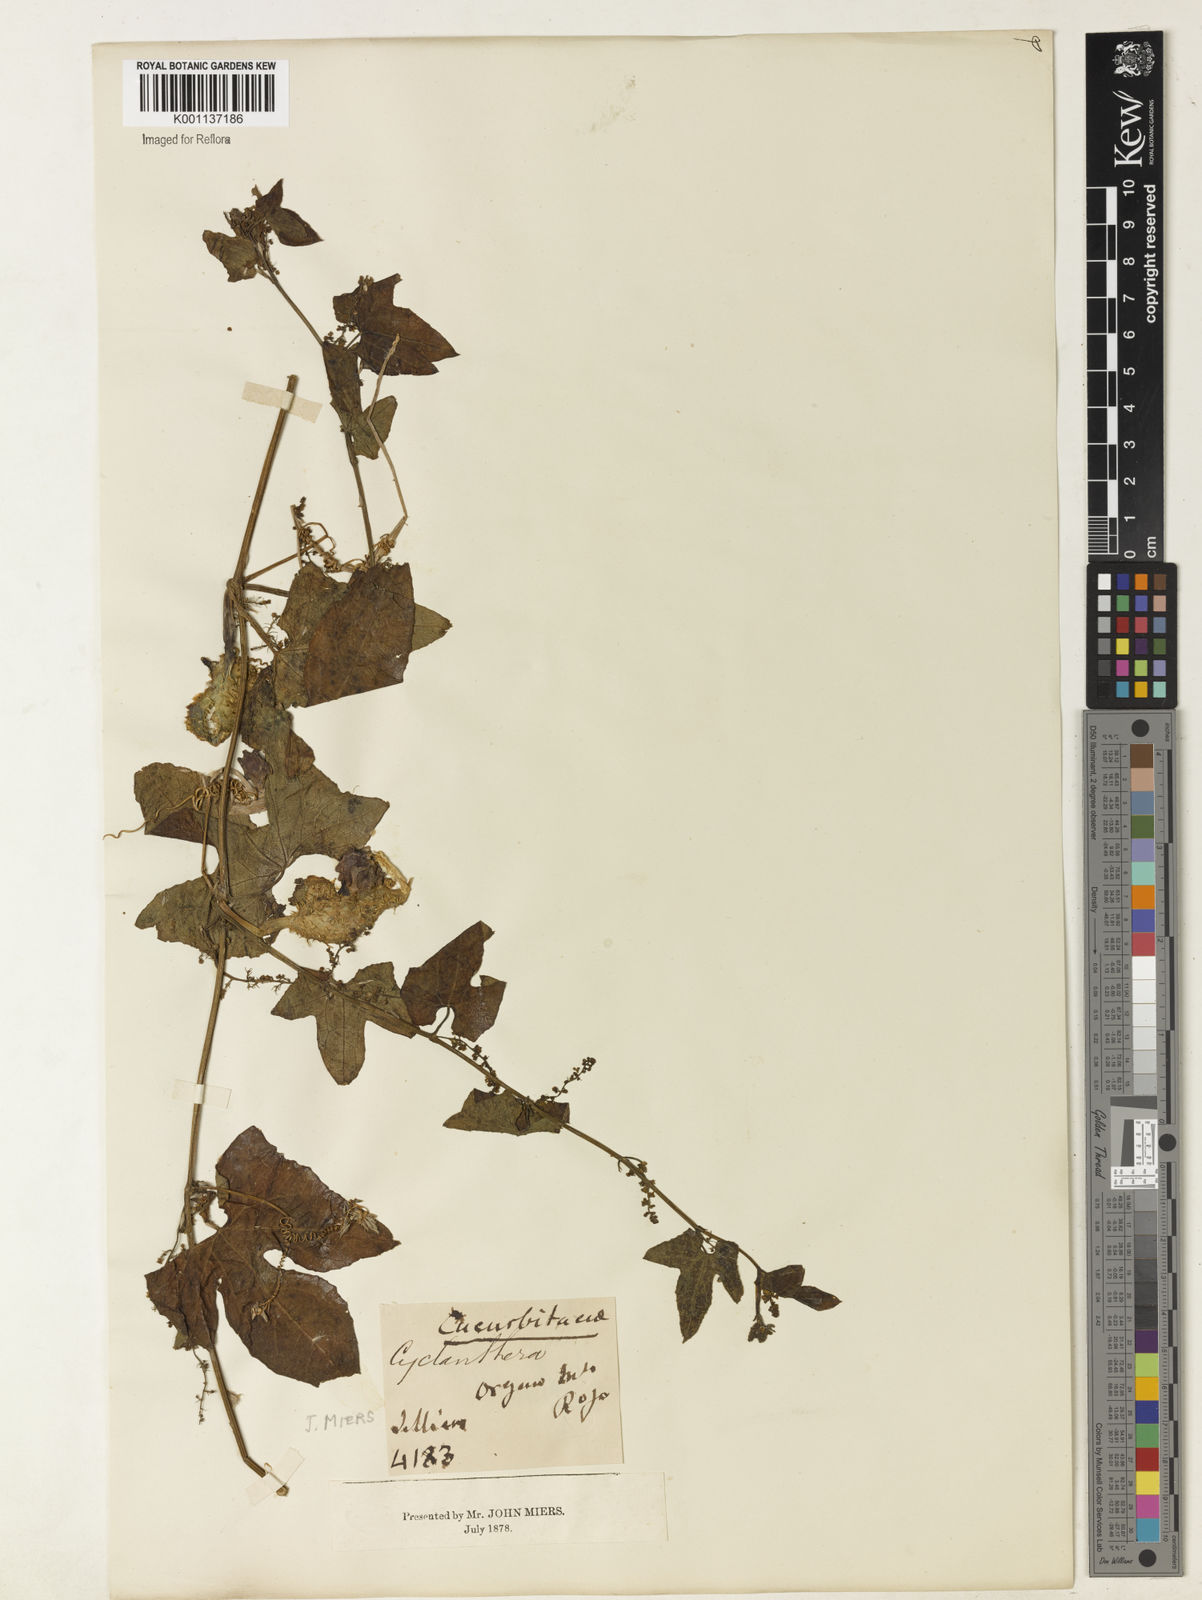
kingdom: Plantae
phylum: Tracheophyta
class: Magnoliopsida
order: Cucurbitales
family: Cucurbitaceae
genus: Cyclanthera
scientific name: Cyclanthera quinquelobata
